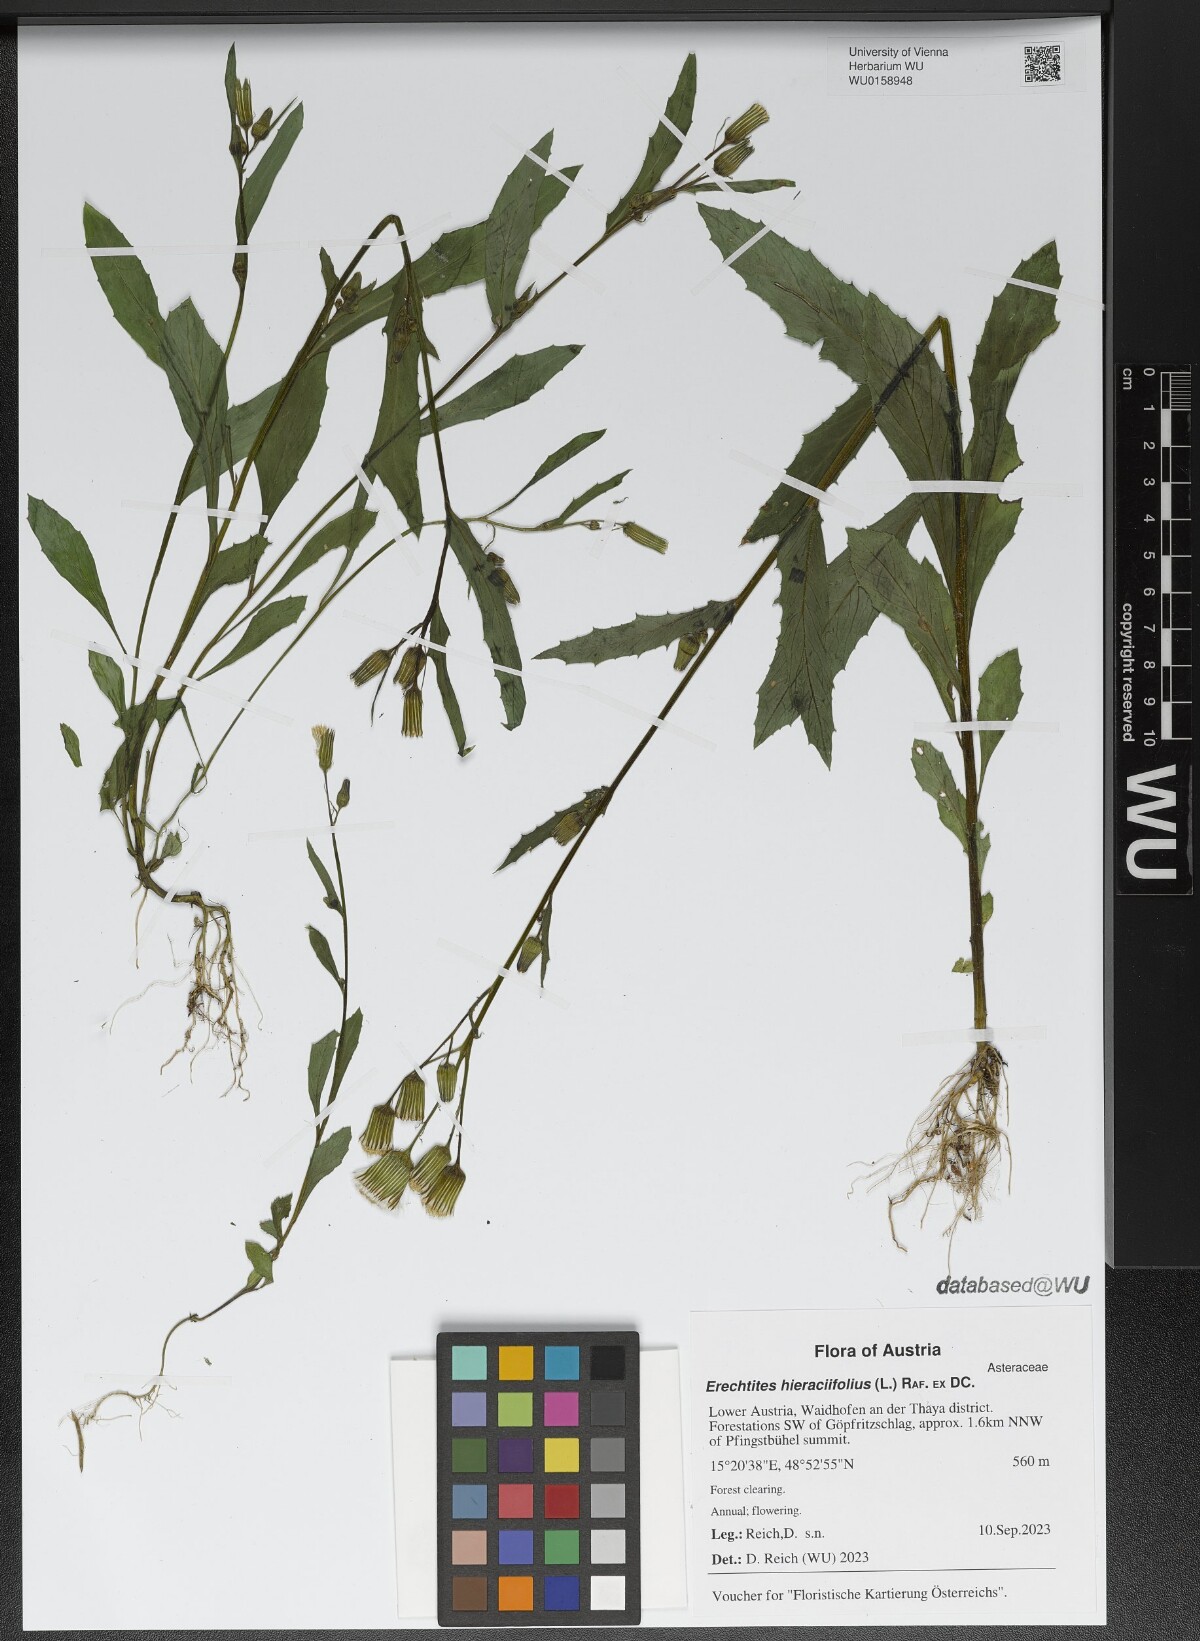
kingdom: Plantae
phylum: Tracheophyta
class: Magnoliopsida
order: Asterales
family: Asteraceae
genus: Erechtites
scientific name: Erechtites hieraciifolius
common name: American burnweed
